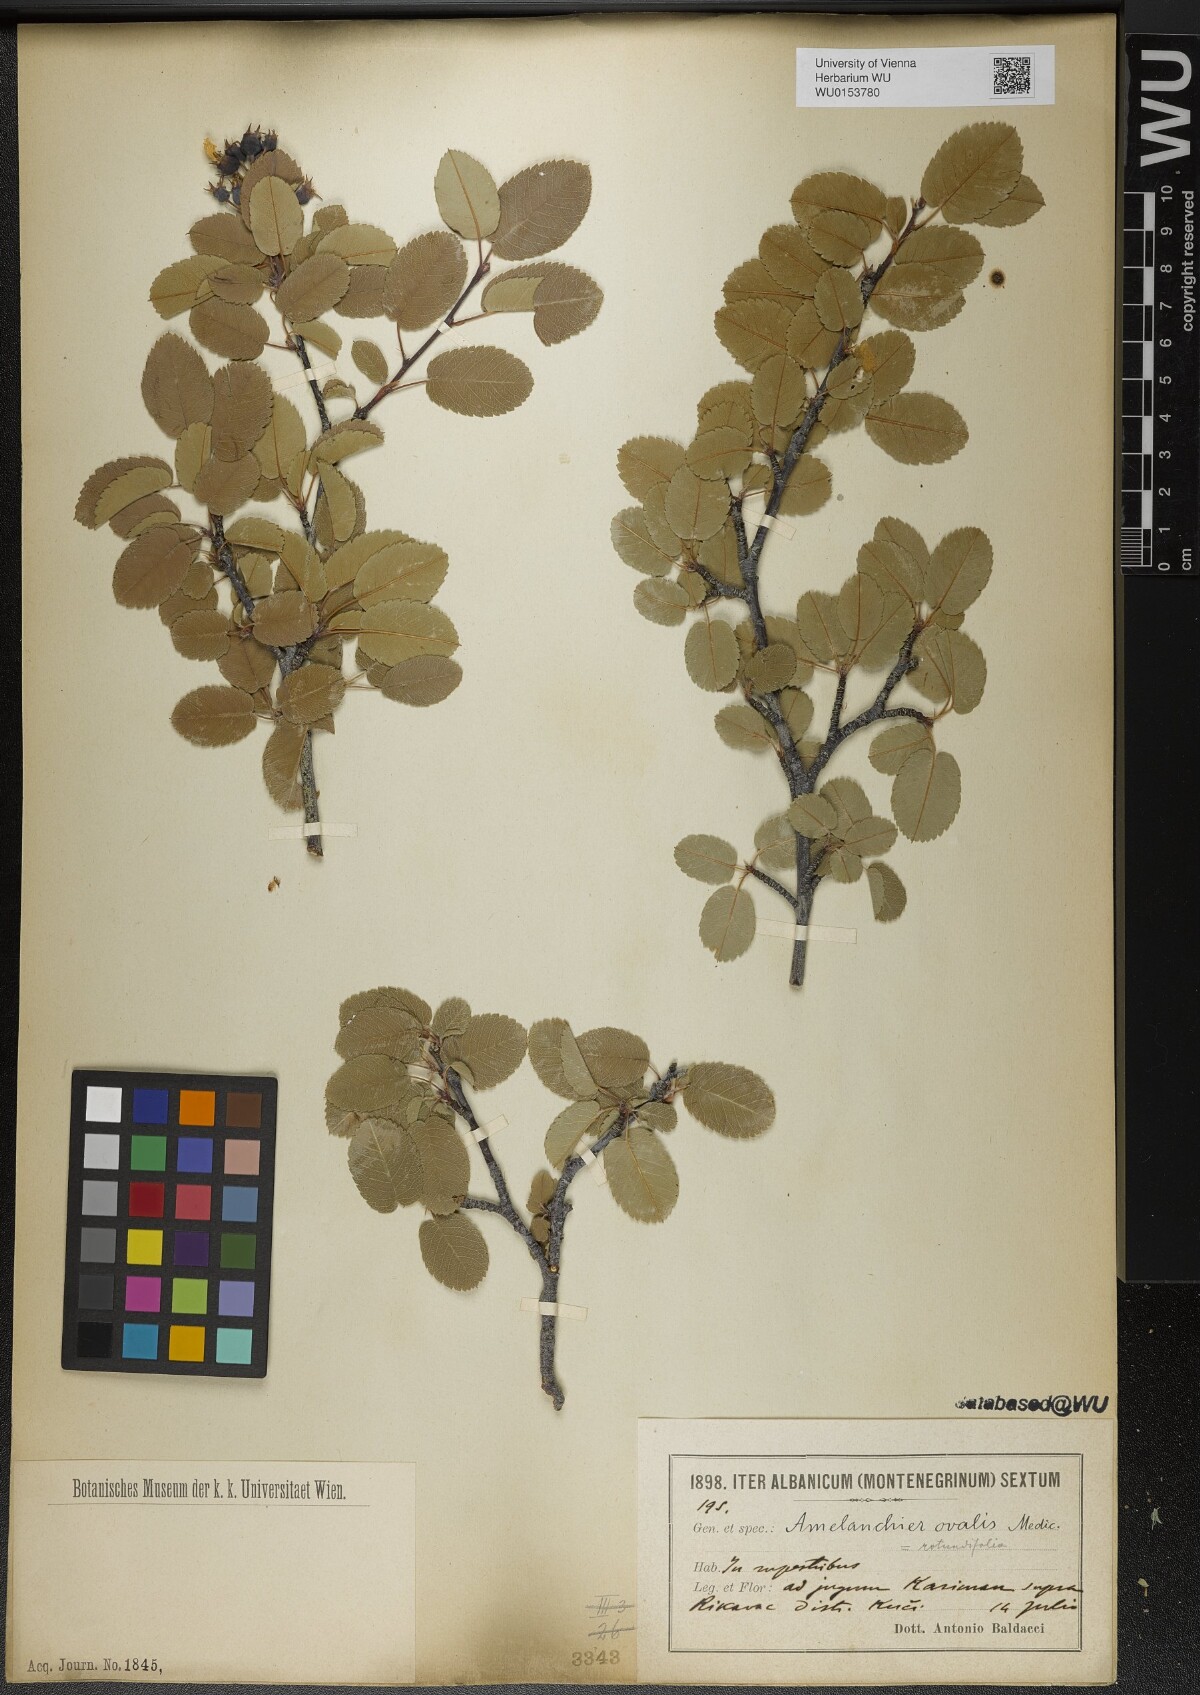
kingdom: Plantae
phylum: Tracheophyta
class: Magnoliopsida
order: Rosales
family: Rosaceae
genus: Amelanchier
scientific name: Amelanchier ovalis
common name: Serviceberry
